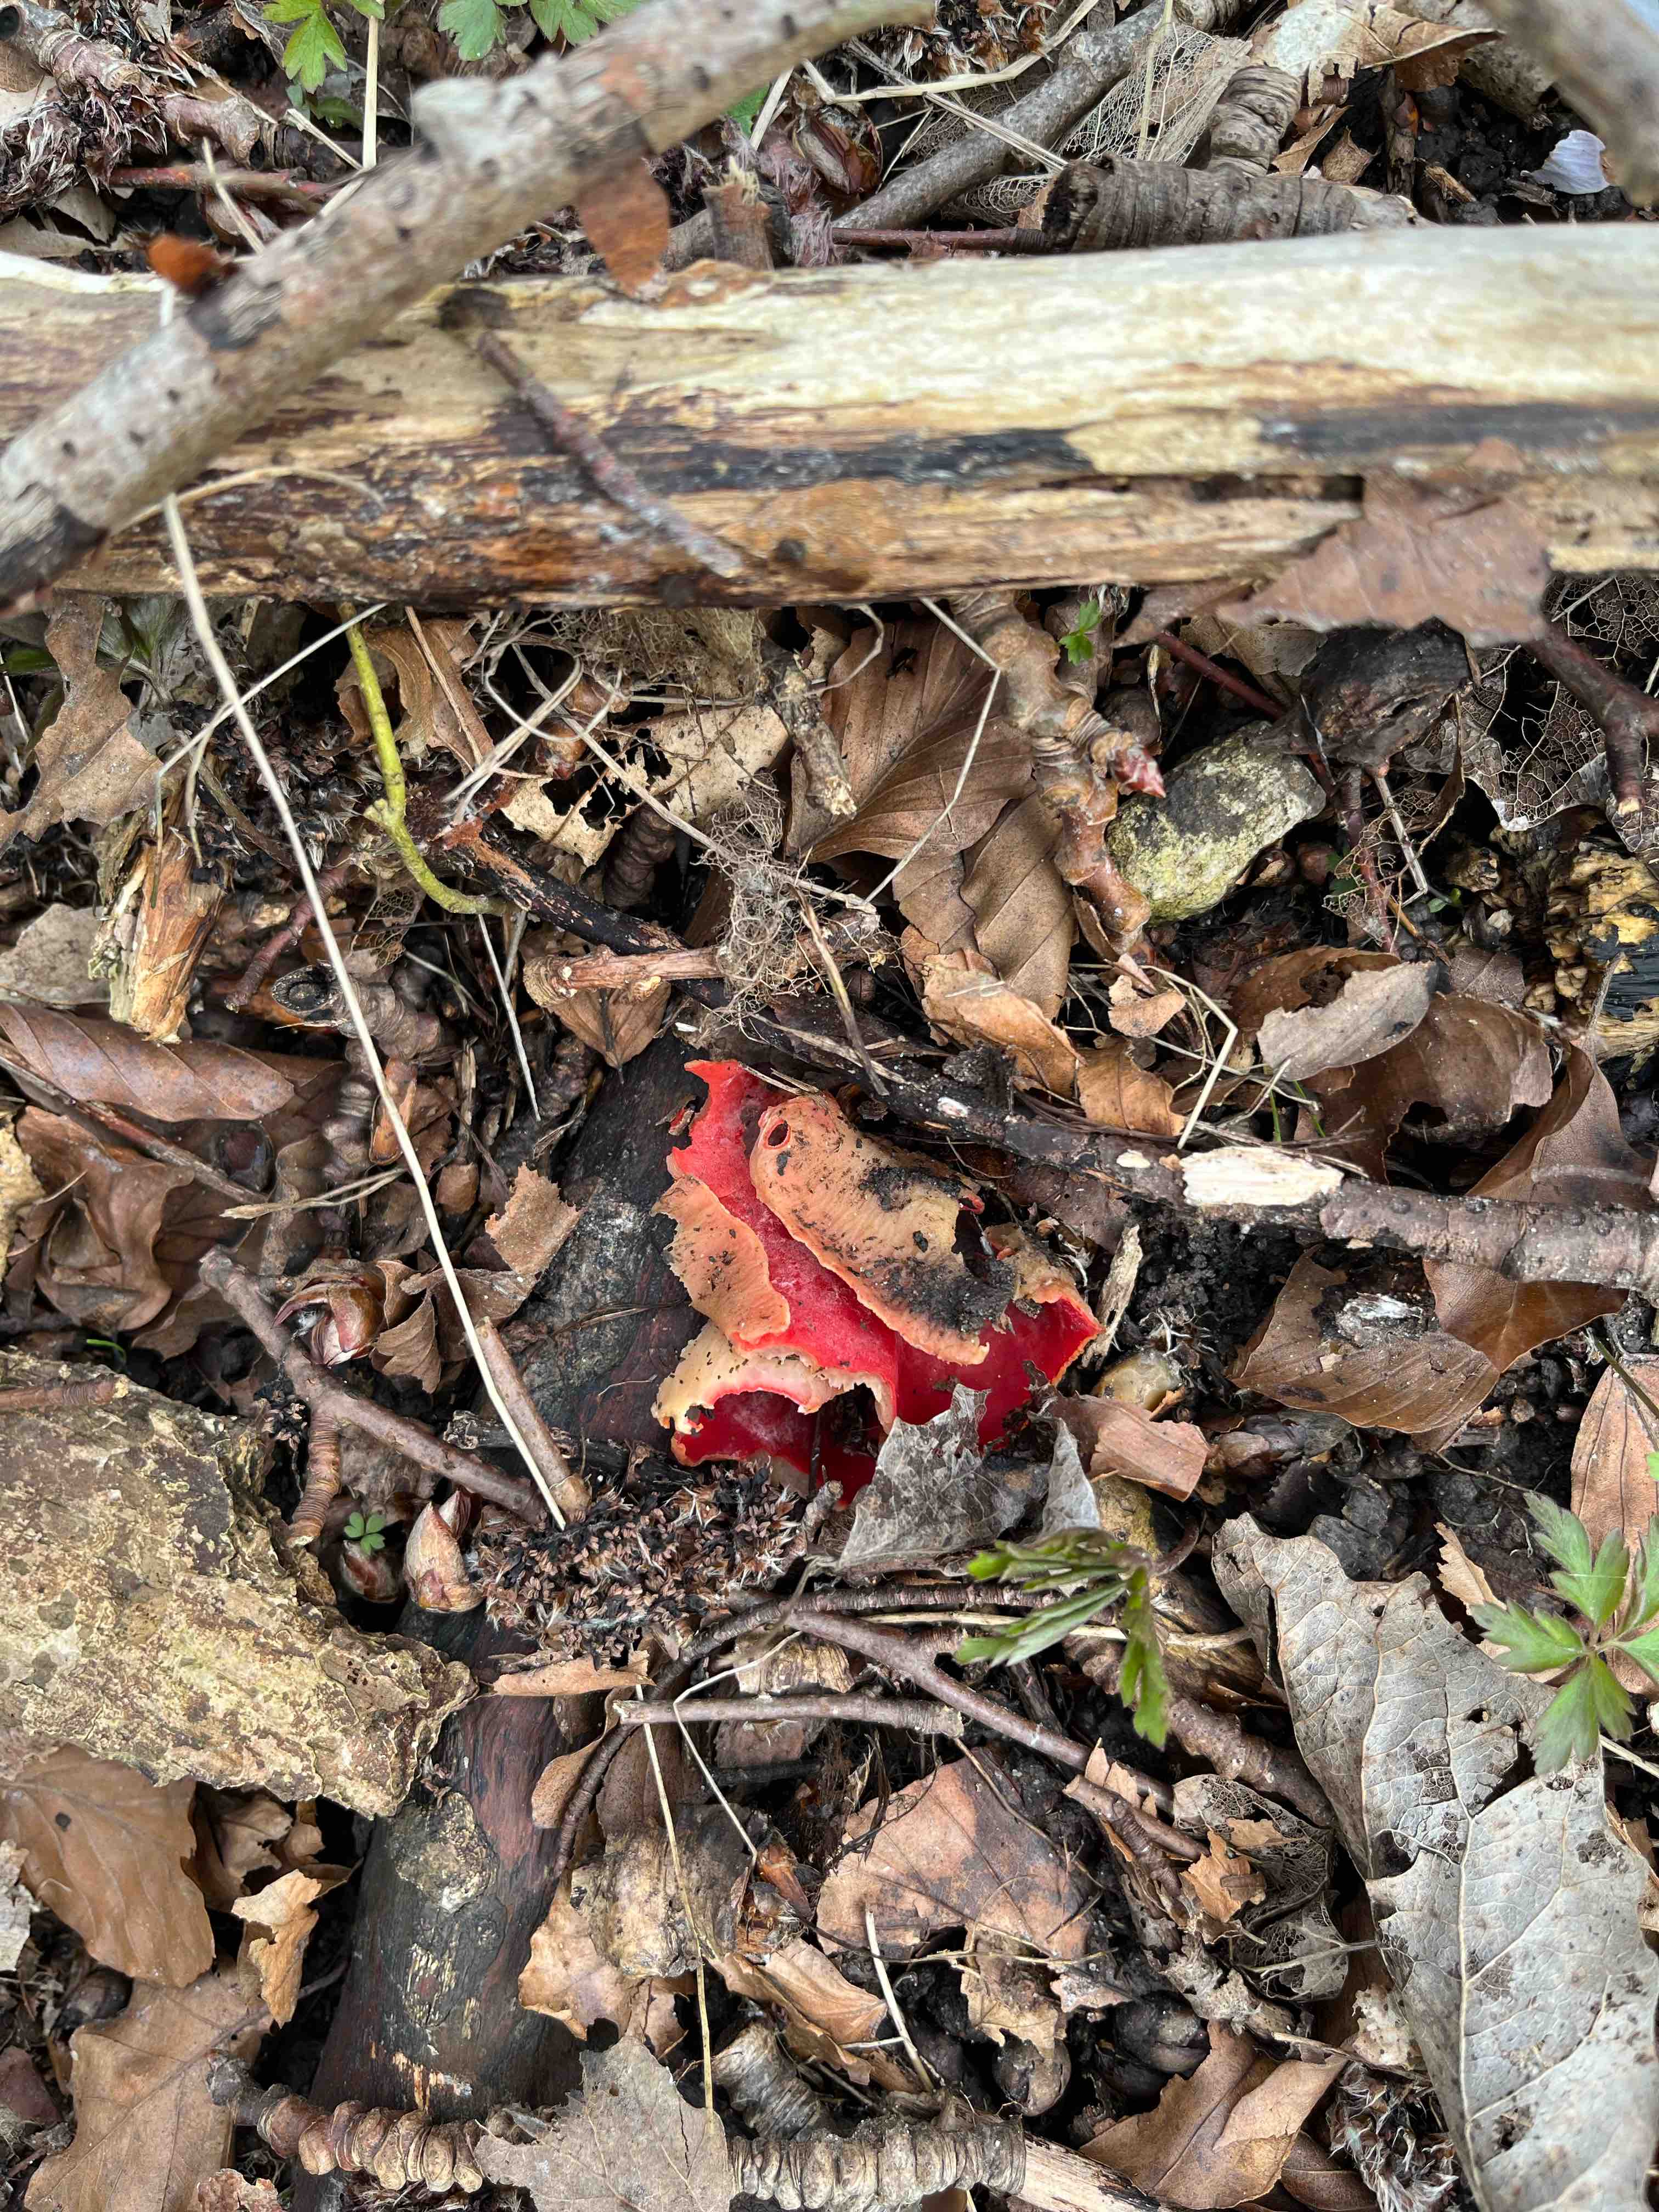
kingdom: Fungi
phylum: Ascomycota
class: Pezizomycetes
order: Pezizales
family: Sarcoscyphaceae
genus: Sarcoscypha
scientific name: Sarcoscypha austriaca
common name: krølhåret pragtbæger
